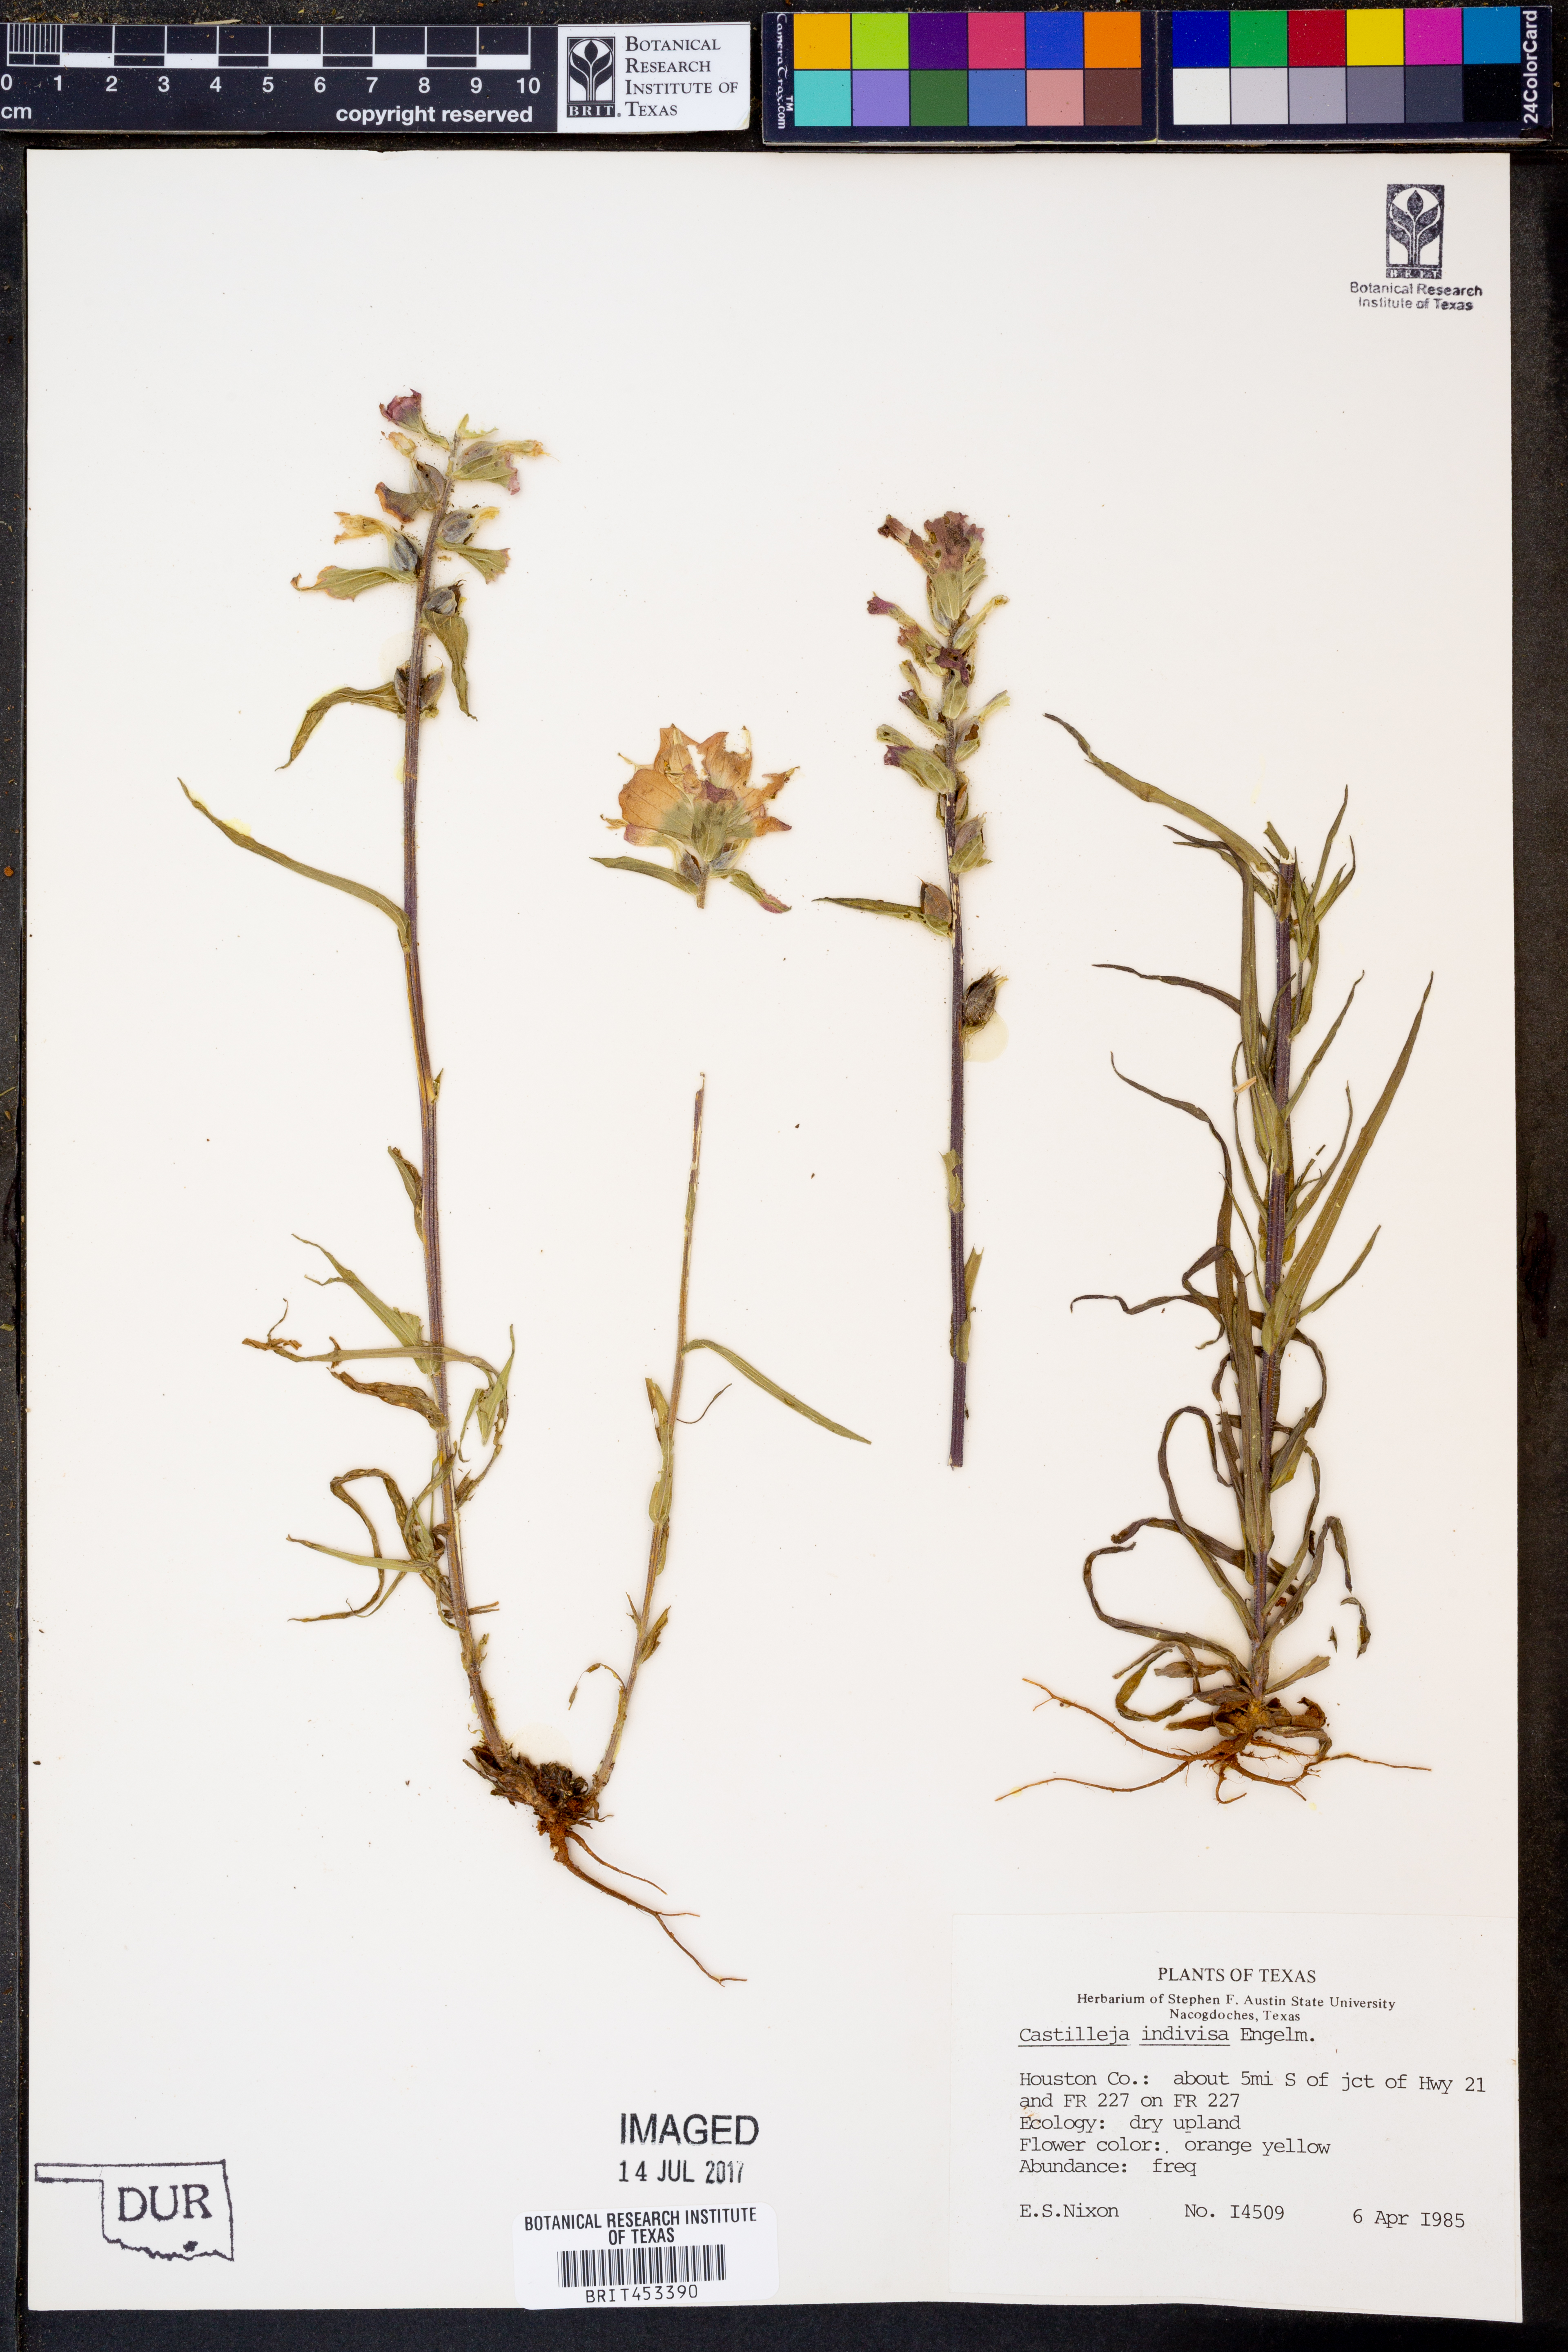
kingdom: Plantae
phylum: Tracheophyta
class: Magnoliopsida
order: Lamiales
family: Orobanchaceae
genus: Castilleja
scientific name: Castilleja indivisa
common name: Texas paintbrush
